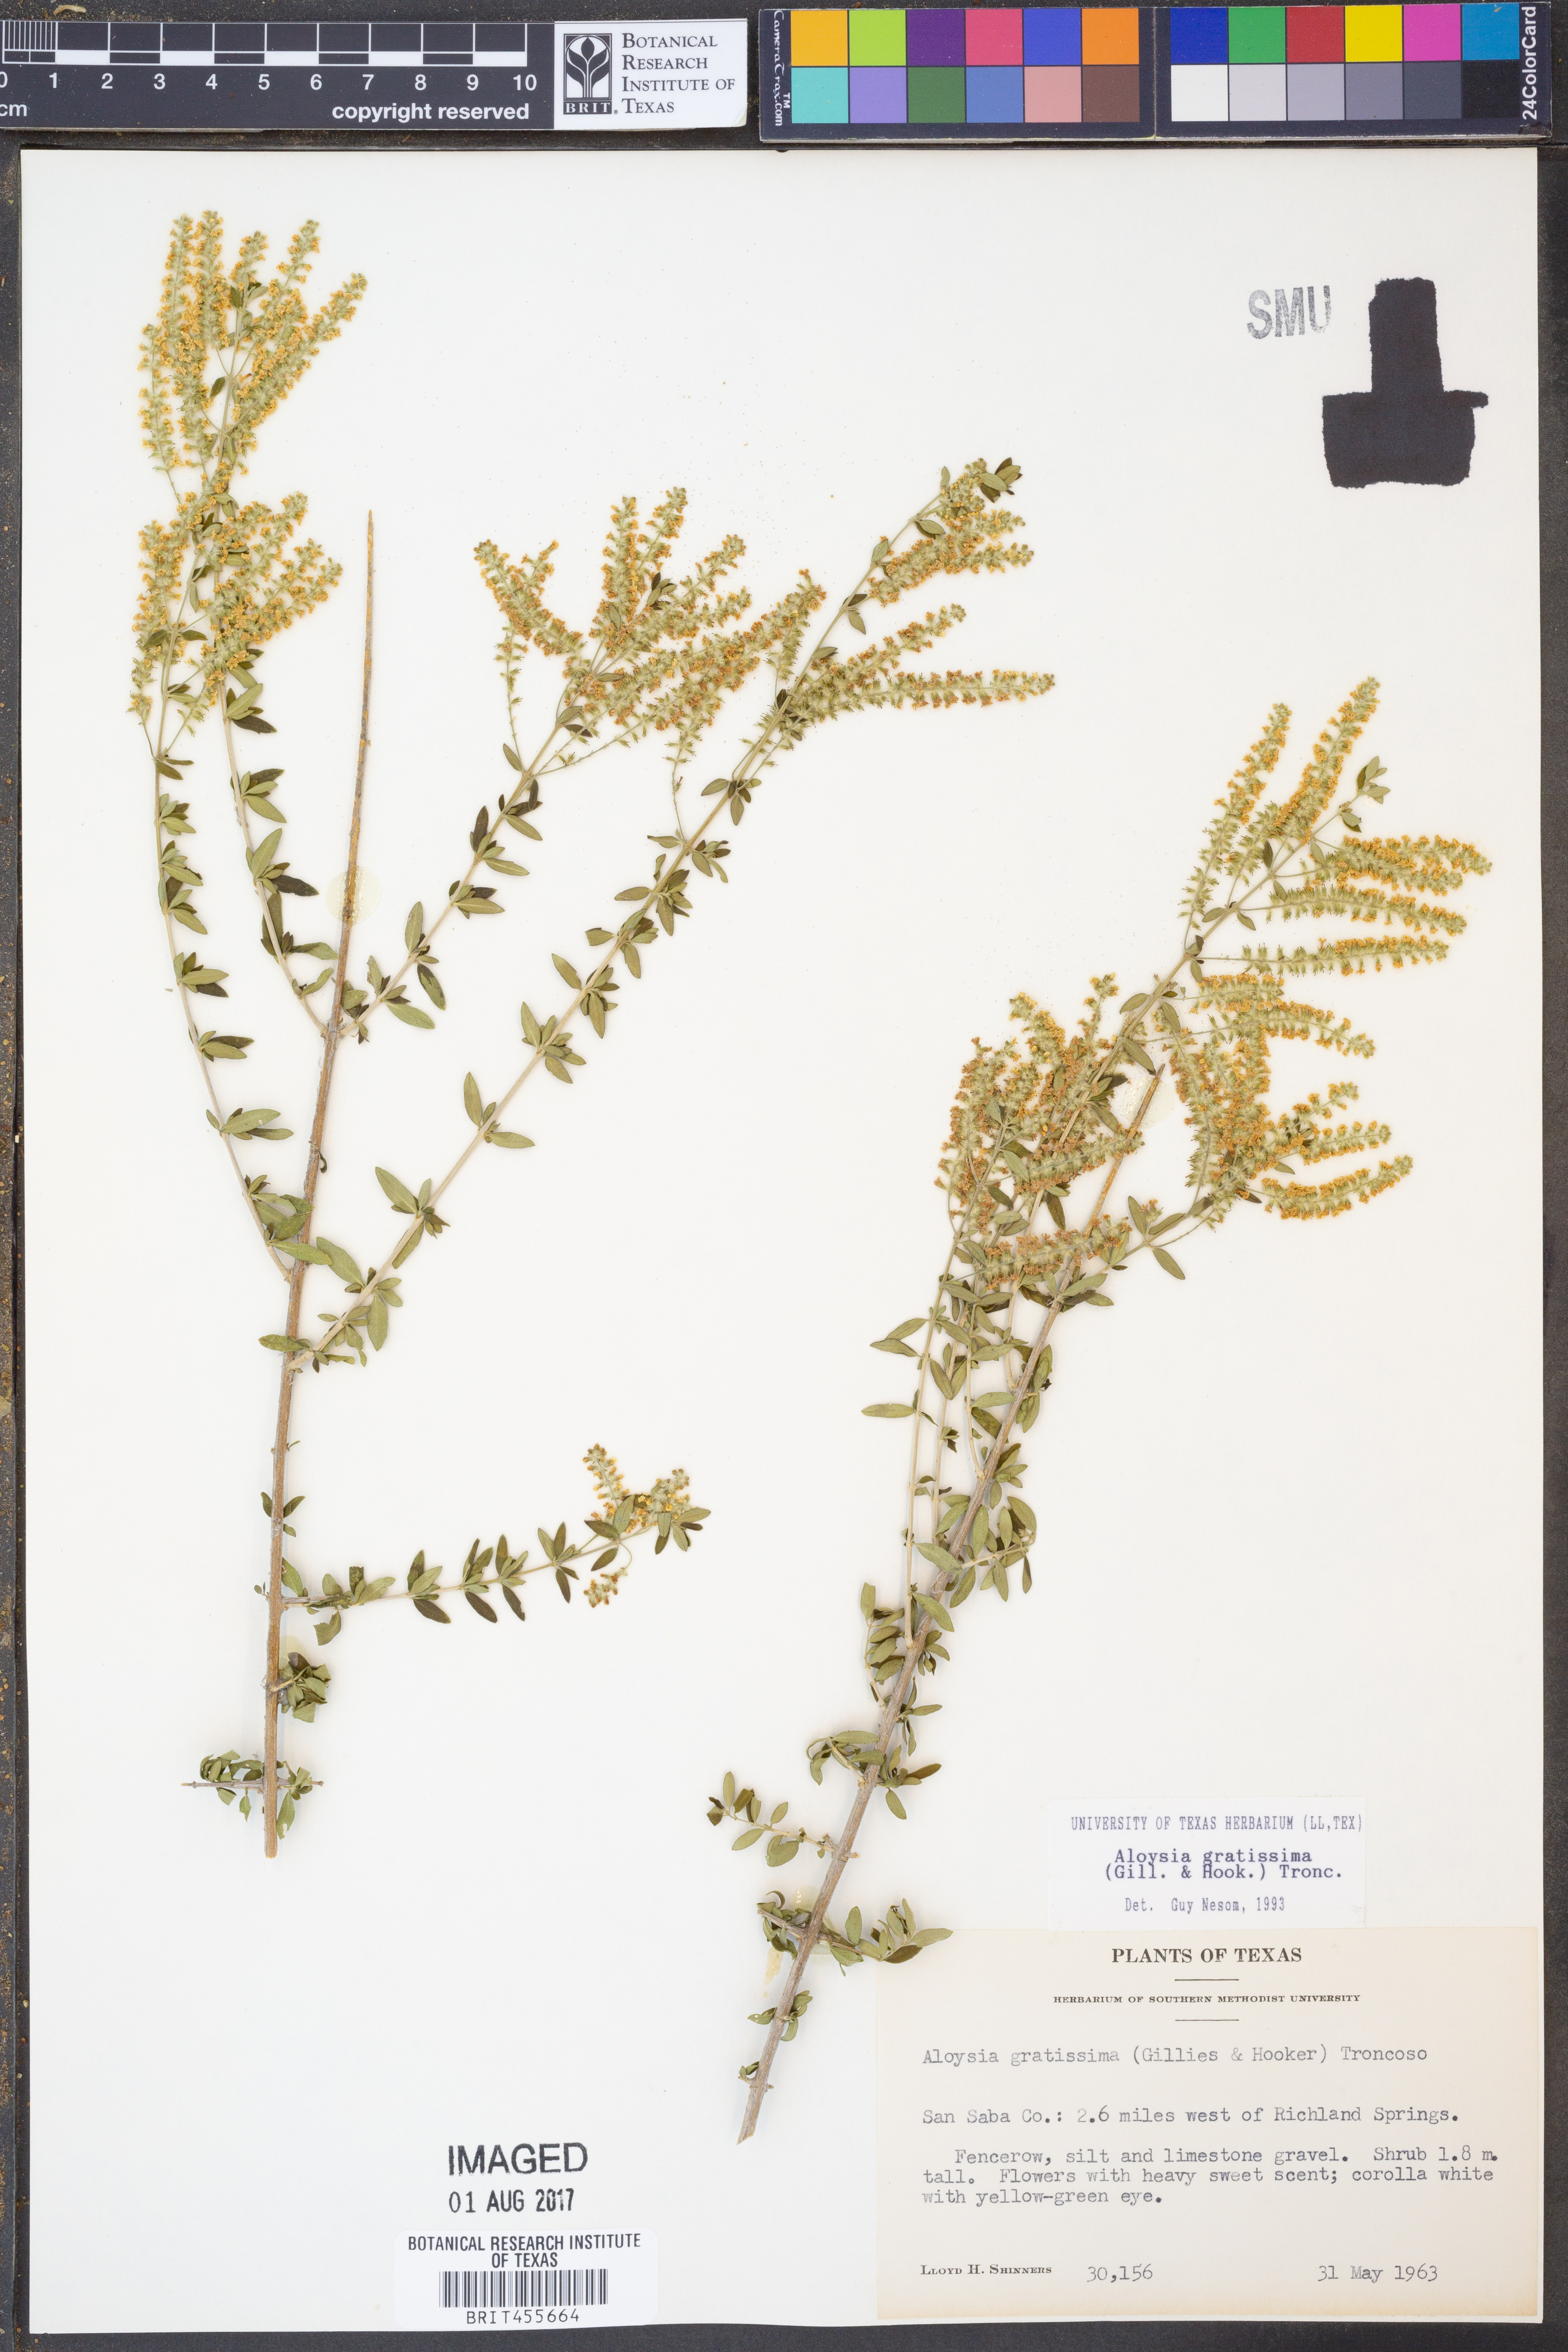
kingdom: Plantae
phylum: Tracheophyta
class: Magnoliopsida
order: Lamiales
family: Verbenaceae
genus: Aloysia
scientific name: Aloysia gratissima
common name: Common bee-brush
